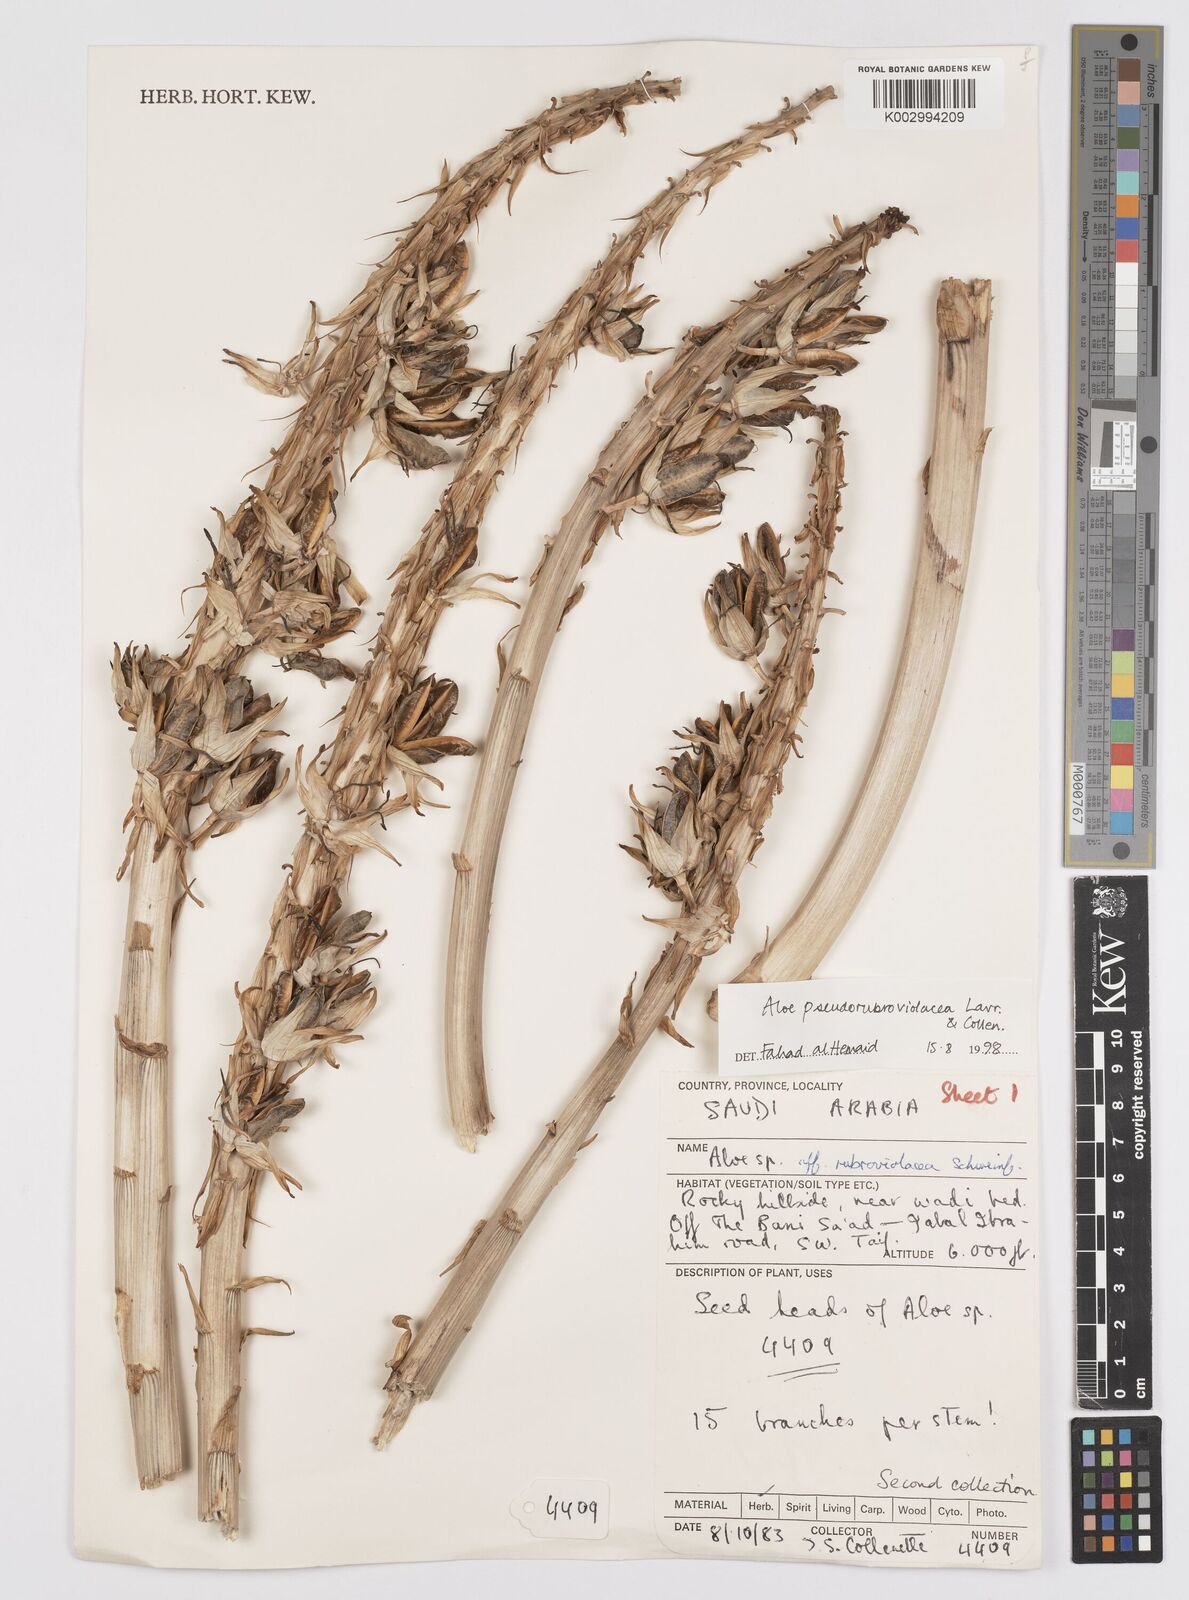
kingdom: Plantae
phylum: Tracheophyta
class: Liliopsida
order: Asparagales
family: Asphodelaceae
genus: Aloe
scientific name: Aloe pseudorubroviolacea
